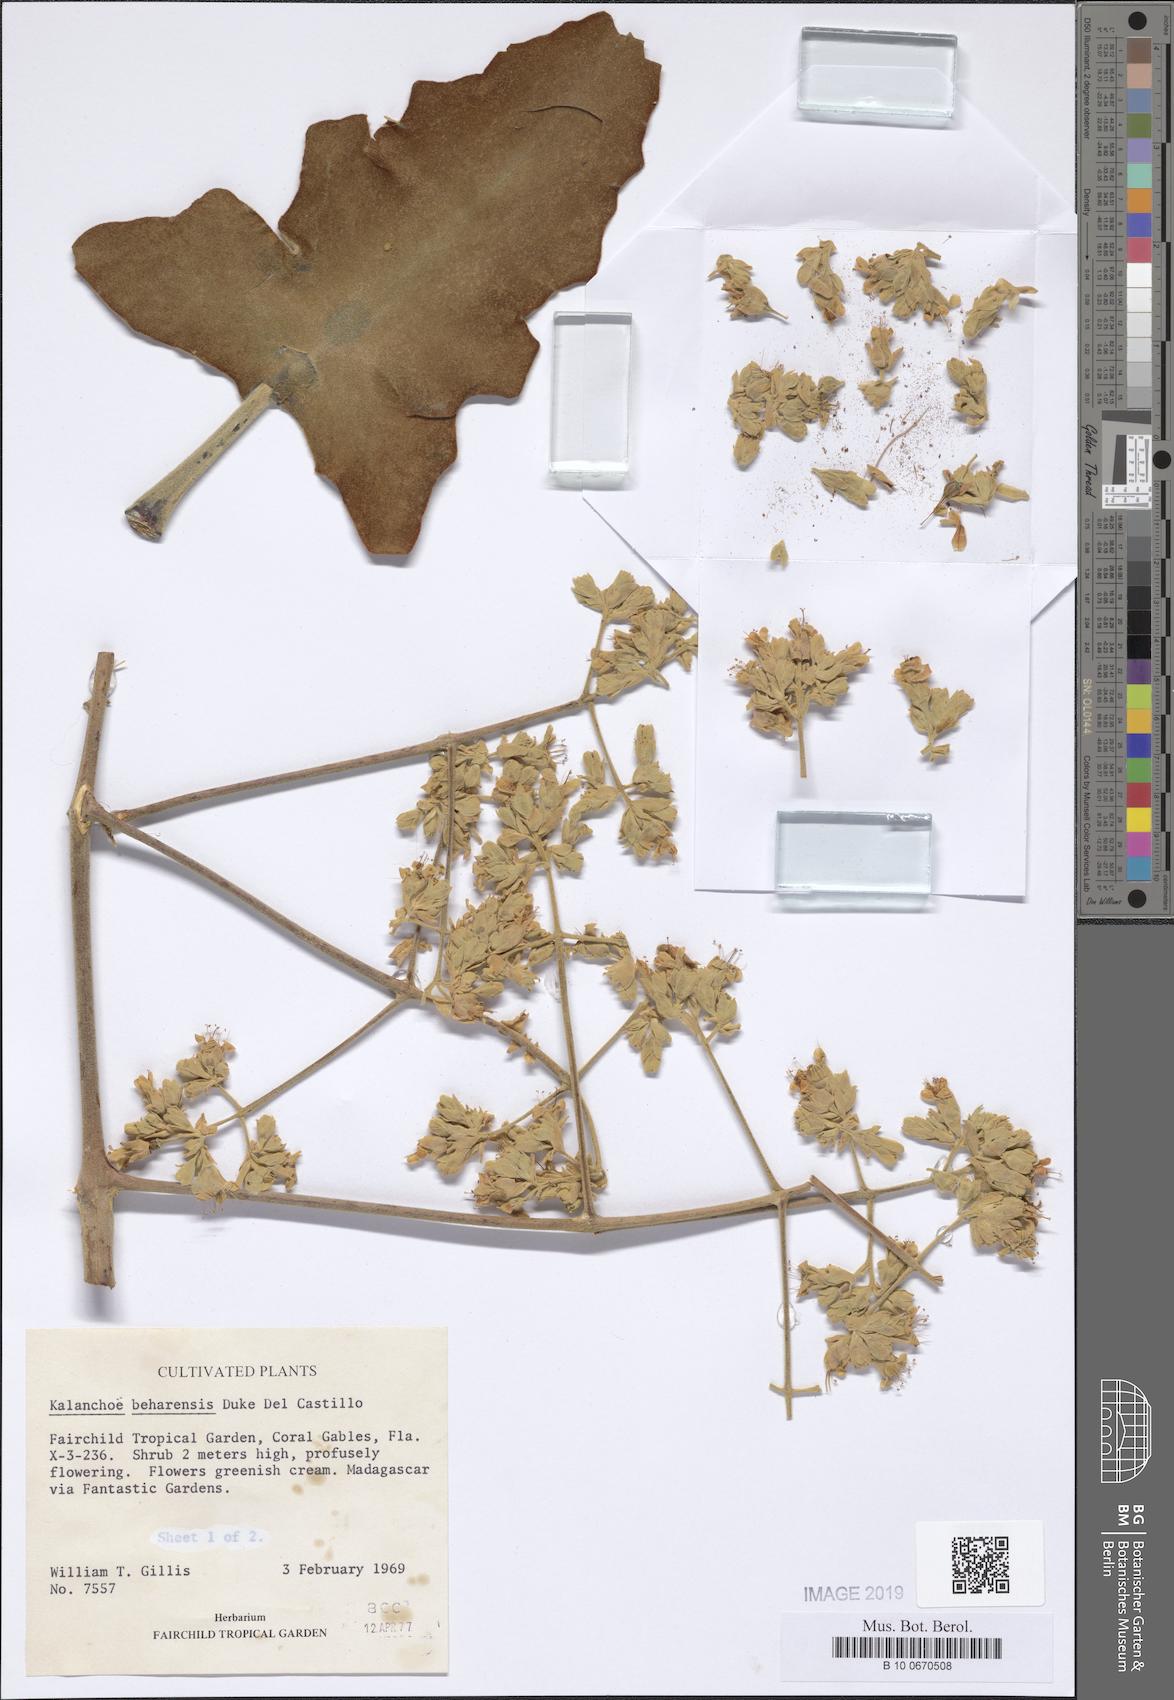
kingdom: Plantae
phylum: Tracheophyta
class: Magnoliopsida
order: Saxifragales
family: Crassulaceae
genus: Kalanchoe
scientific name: Kalanchoe beharensis
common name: Velvet leaf
